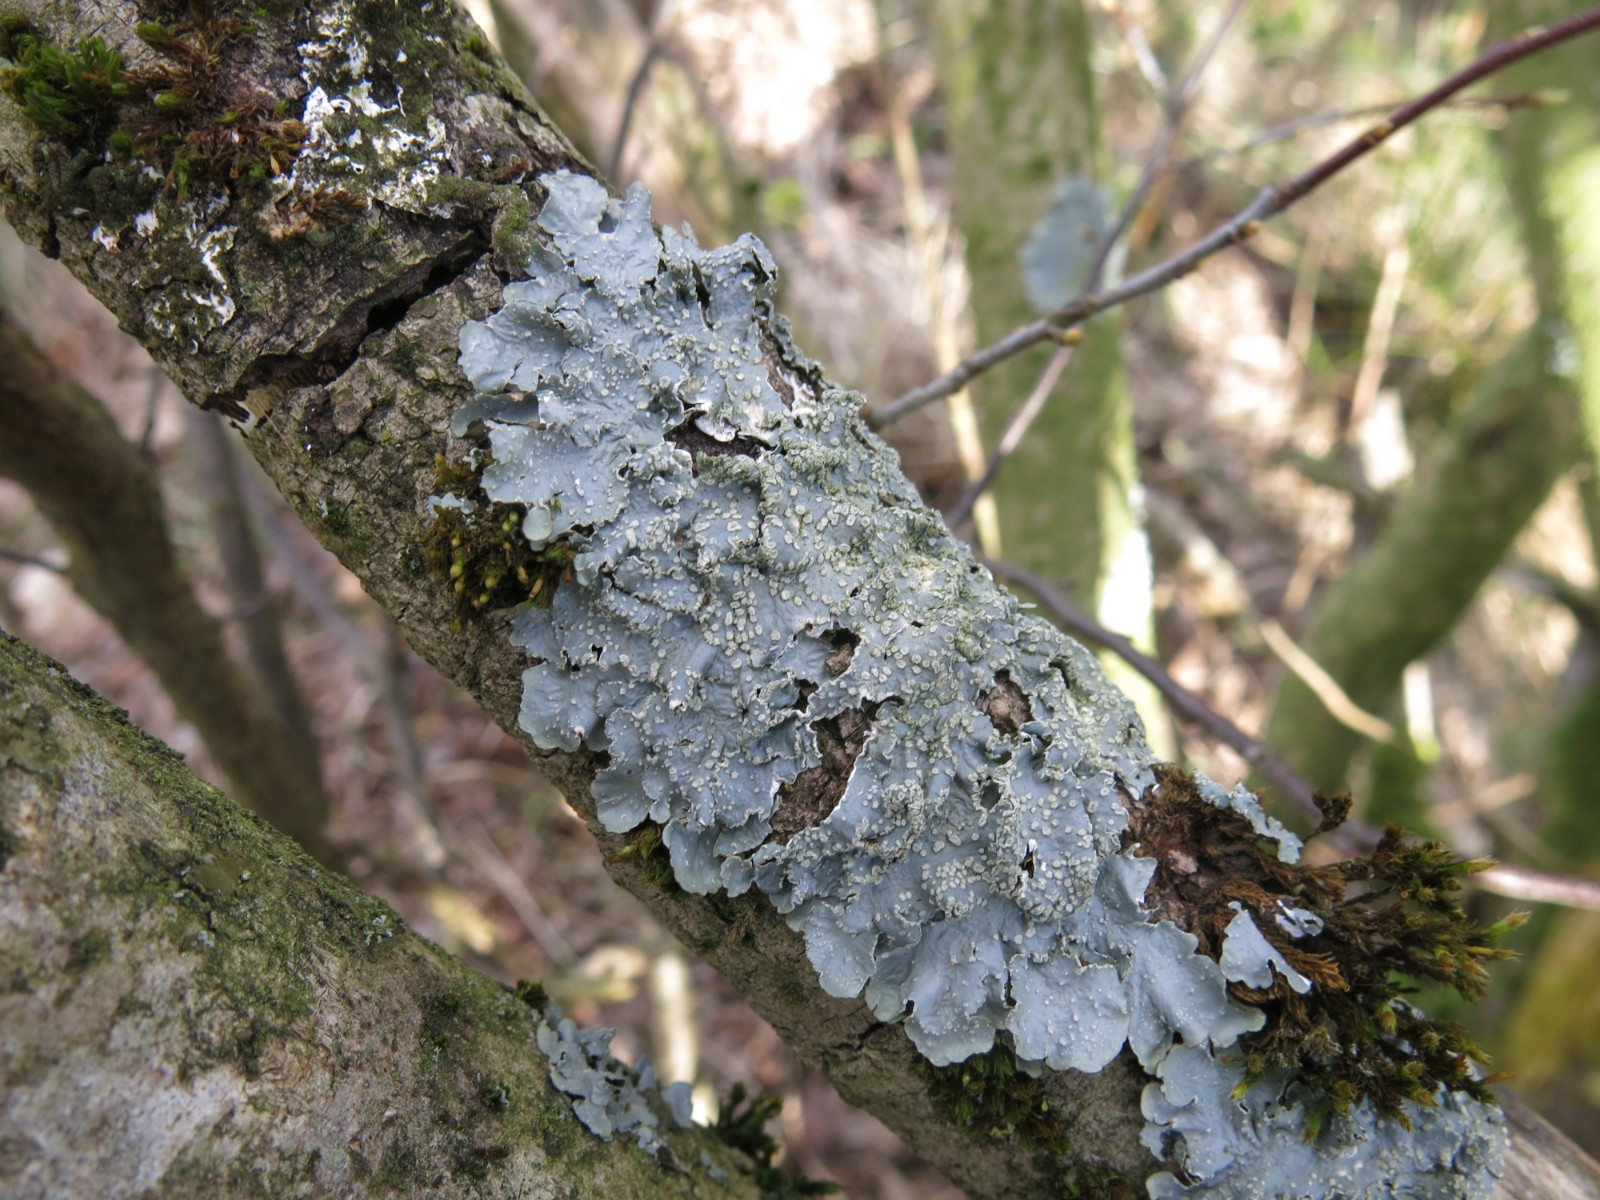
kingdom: Fungi
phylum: Ascomycota
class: Lecanoromycetes
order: Lecanorales
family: Parmeliaceae
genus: Punctelia
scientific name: Punctelia subrudecta
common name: punkt-skållav
